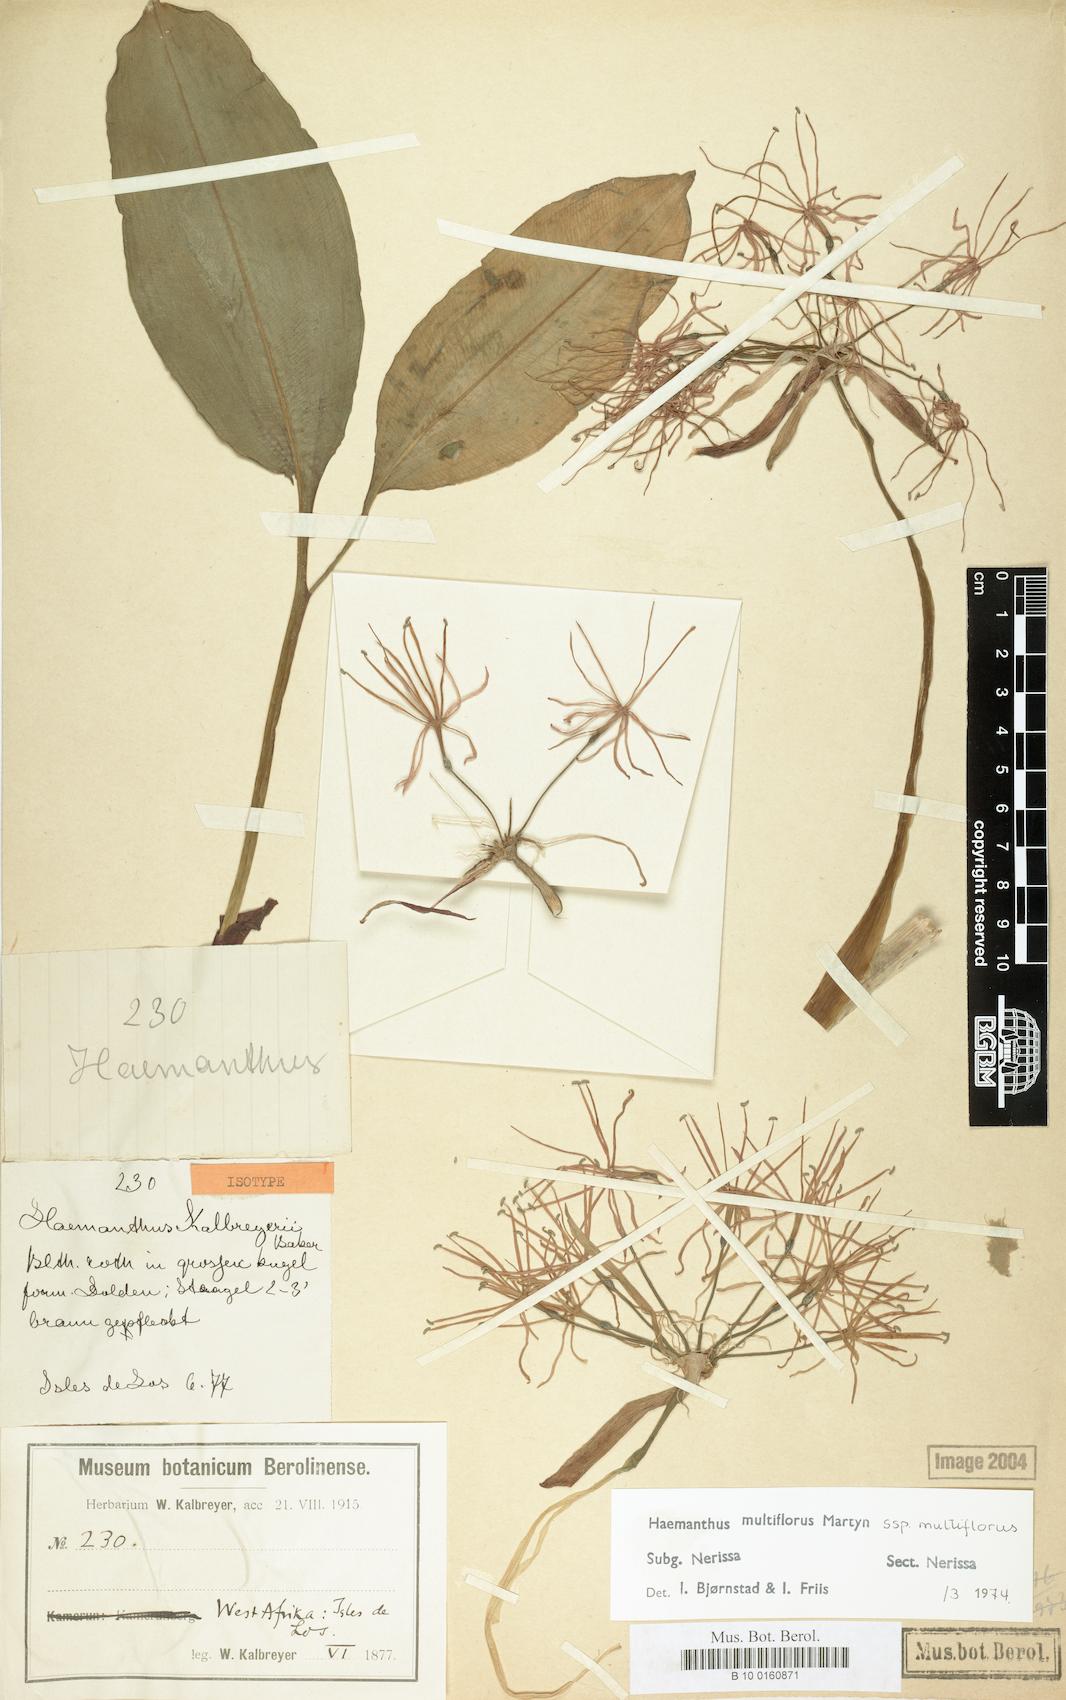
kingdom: Plantae
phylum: Tracheophyta
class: Liliopsida
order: Asparagales
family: Amaryllidaceae
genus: Scadoxus
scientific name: Scadoxus multiflorus
